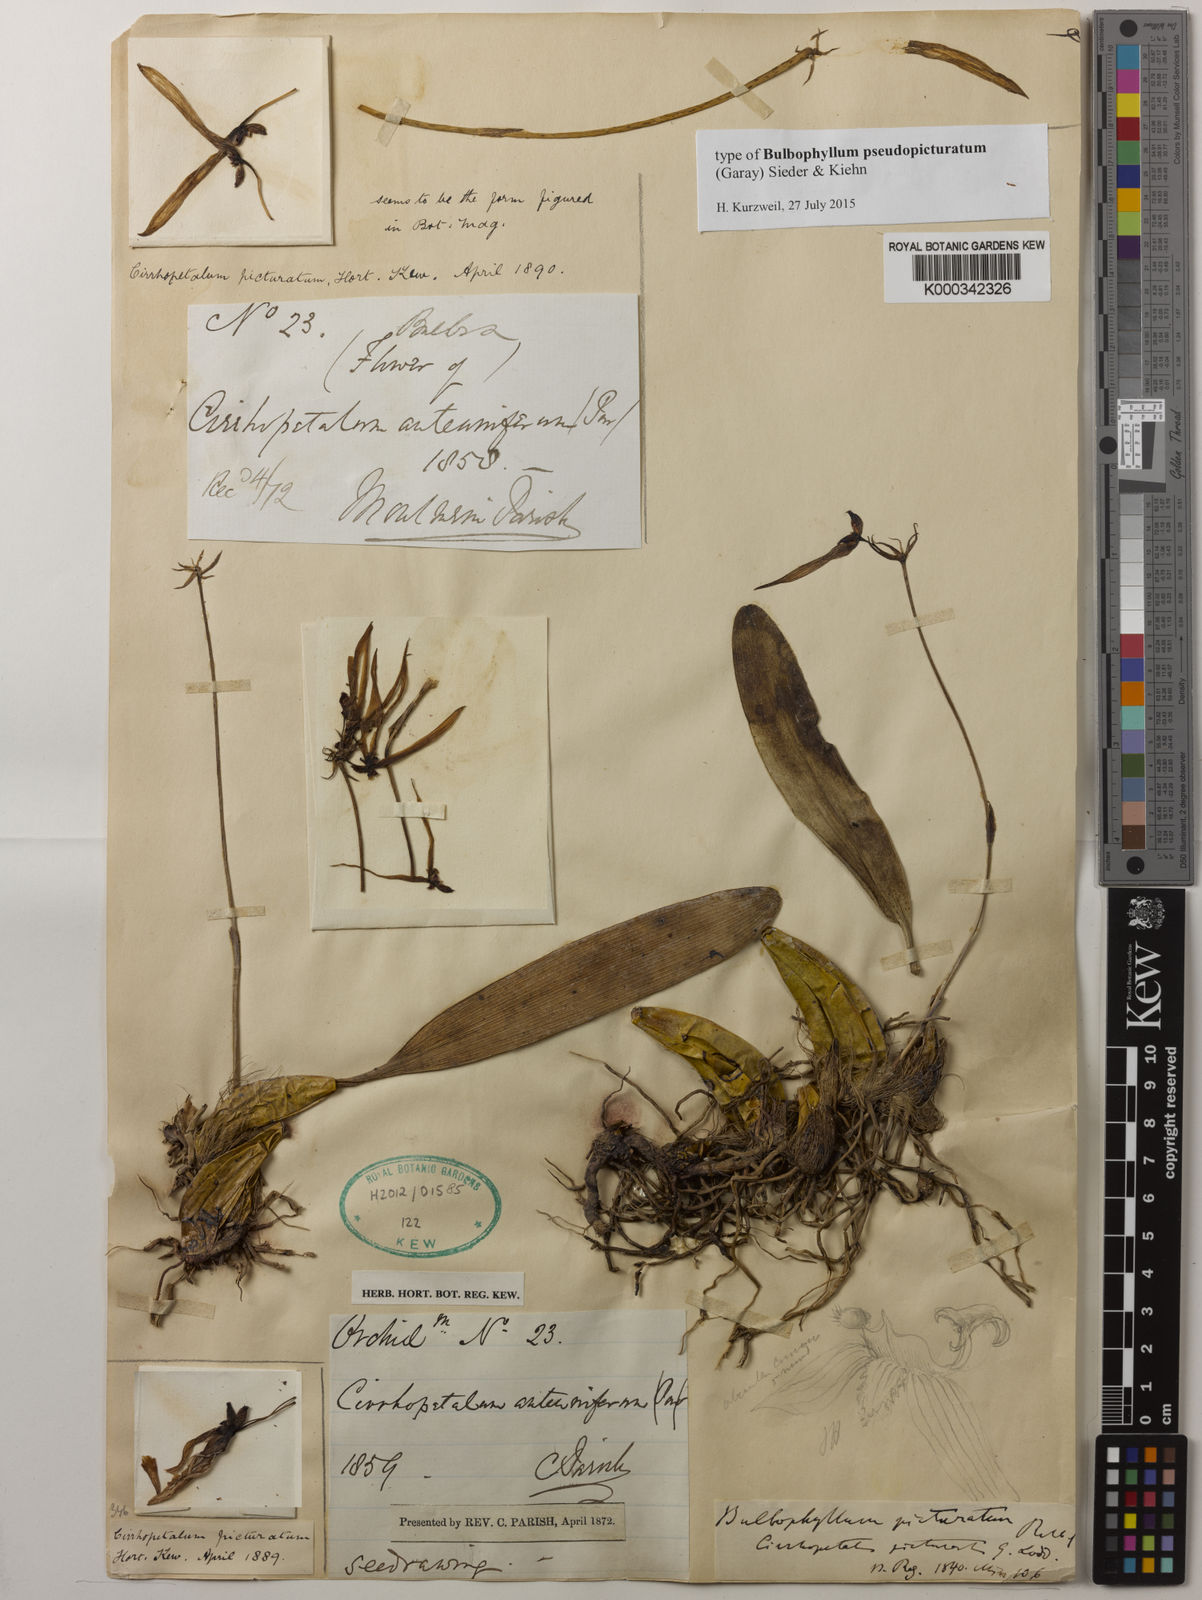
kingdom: Plantae
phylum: Tracheophyta
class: Liliopsida
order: Asparagales
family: Orchidaceae
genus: Bulbophyllum
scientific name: Bulbophyllum picturatum
